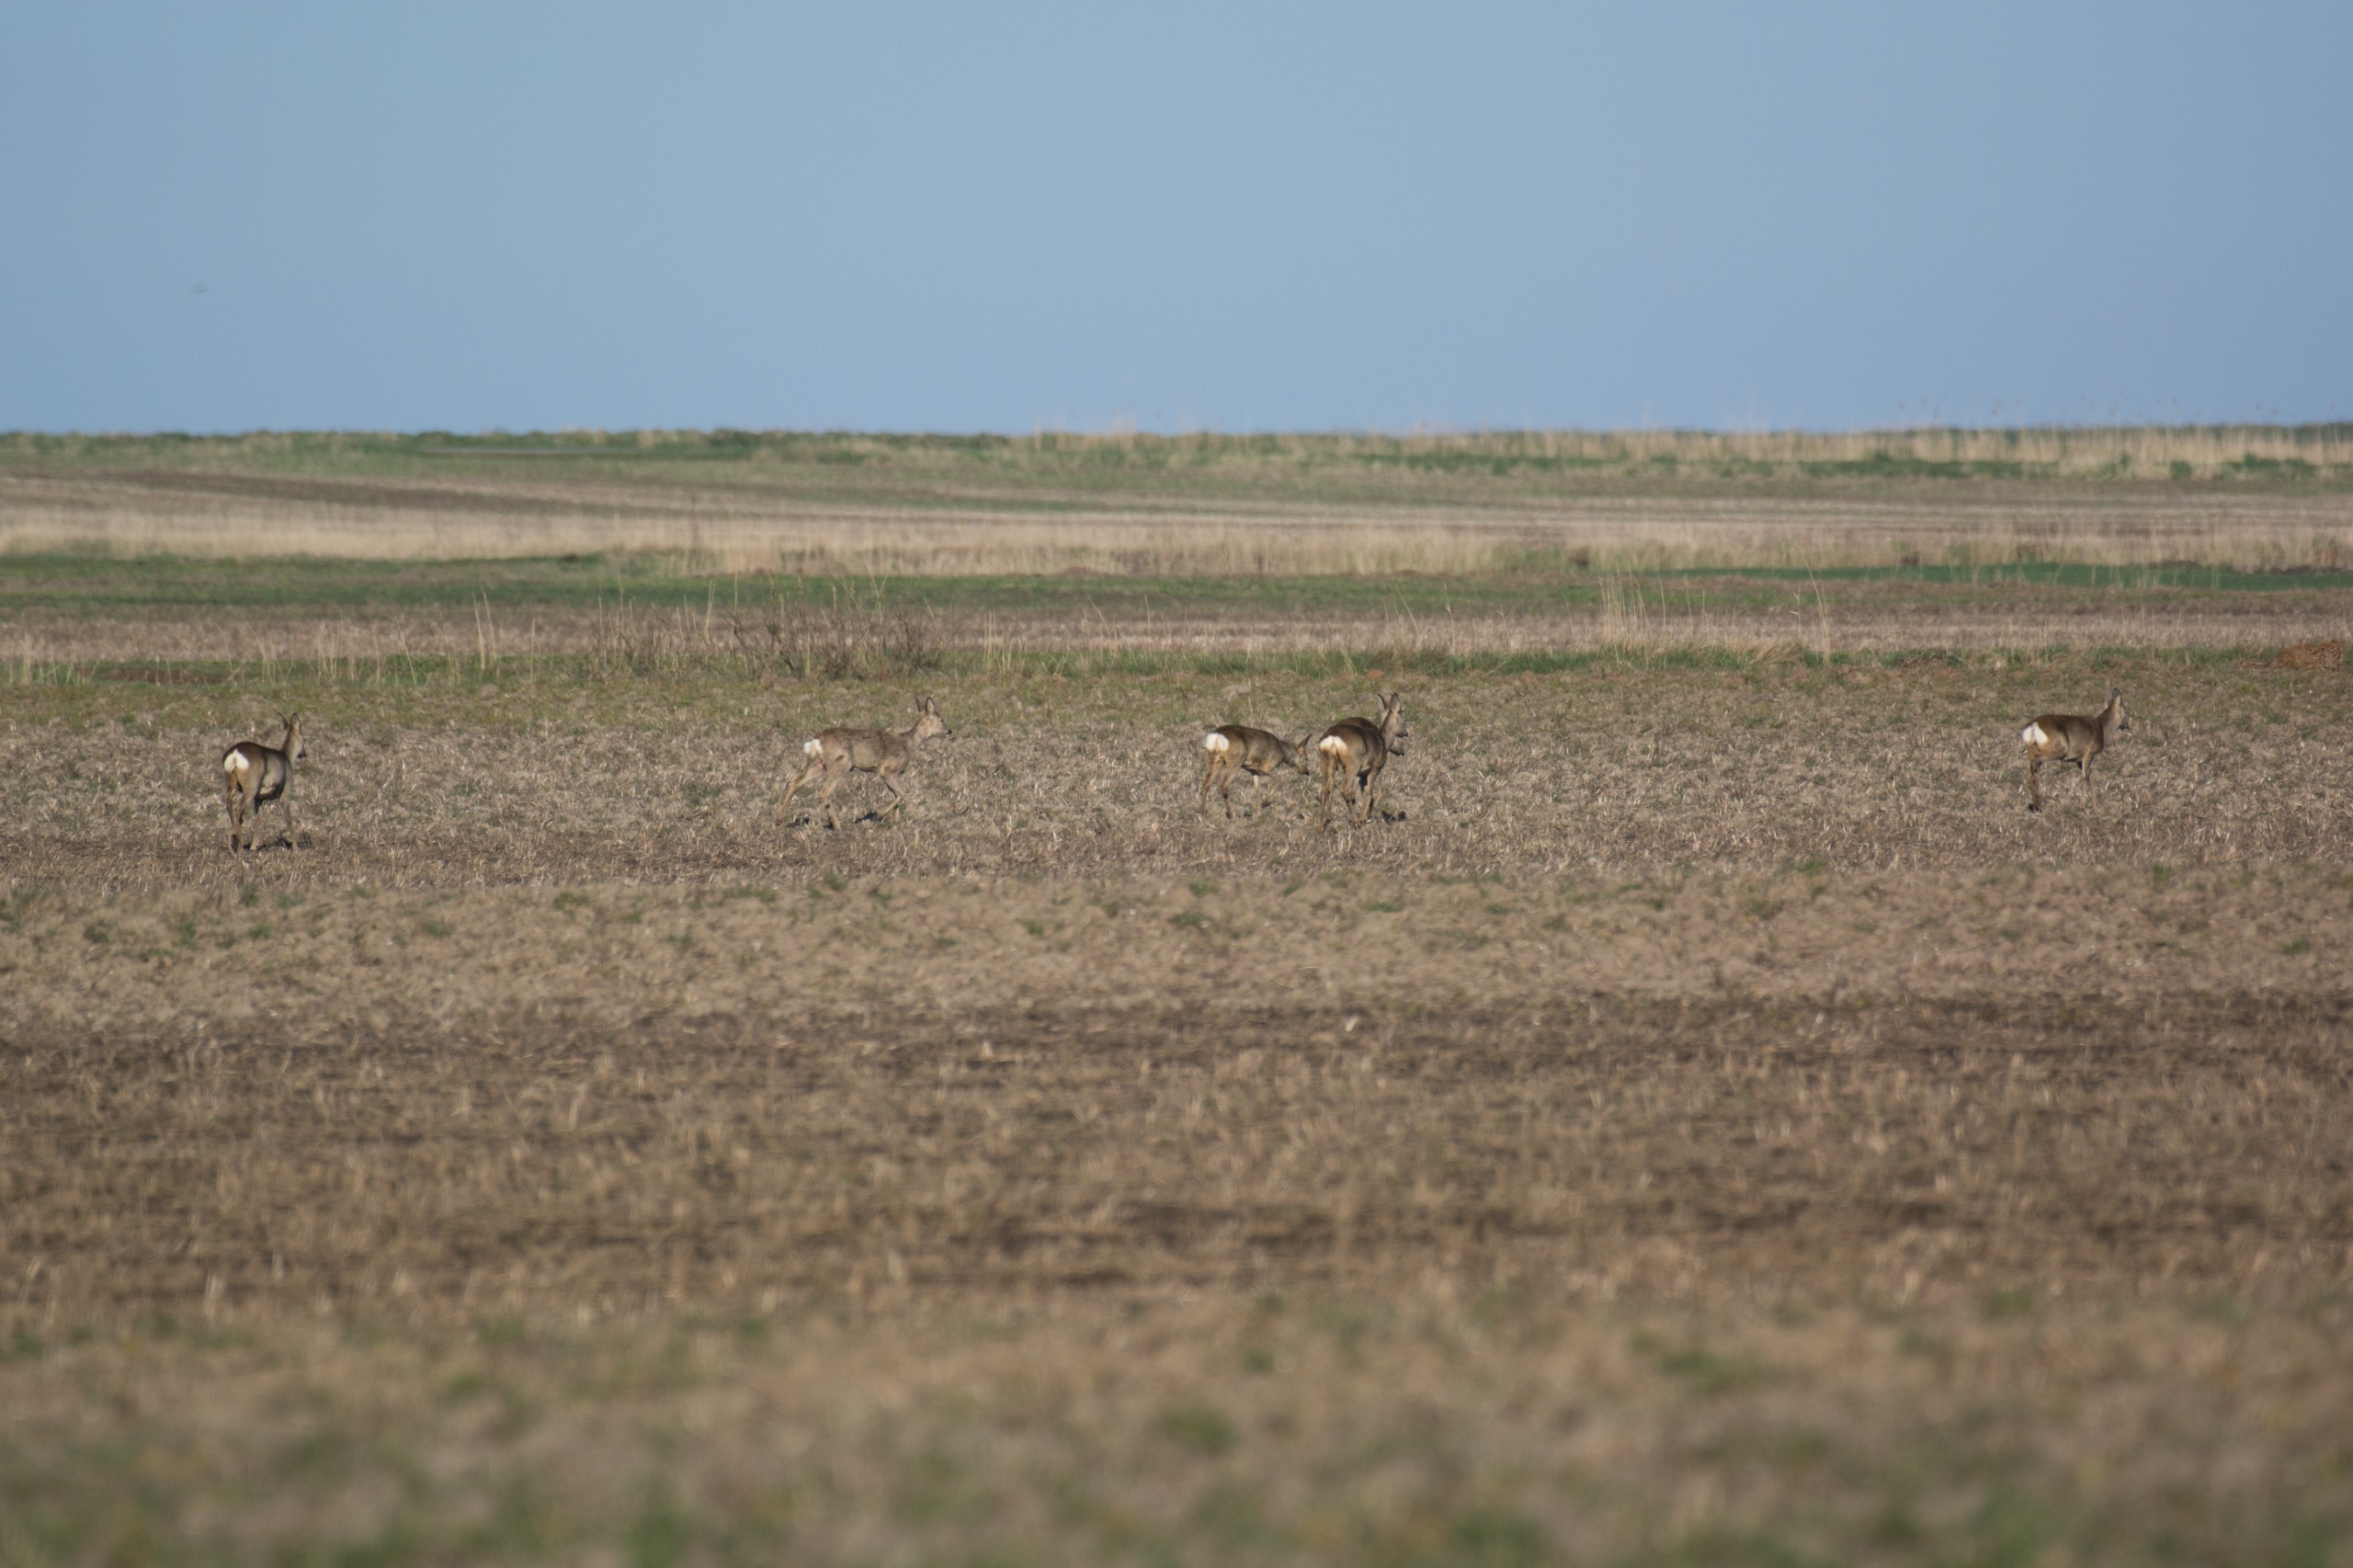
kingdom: Animalia
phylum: Chordata
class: Mammalia
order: Artiodactyla
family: Cervidae
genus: Capreolus
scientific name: Capreolus capreolus
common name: Rådyr
